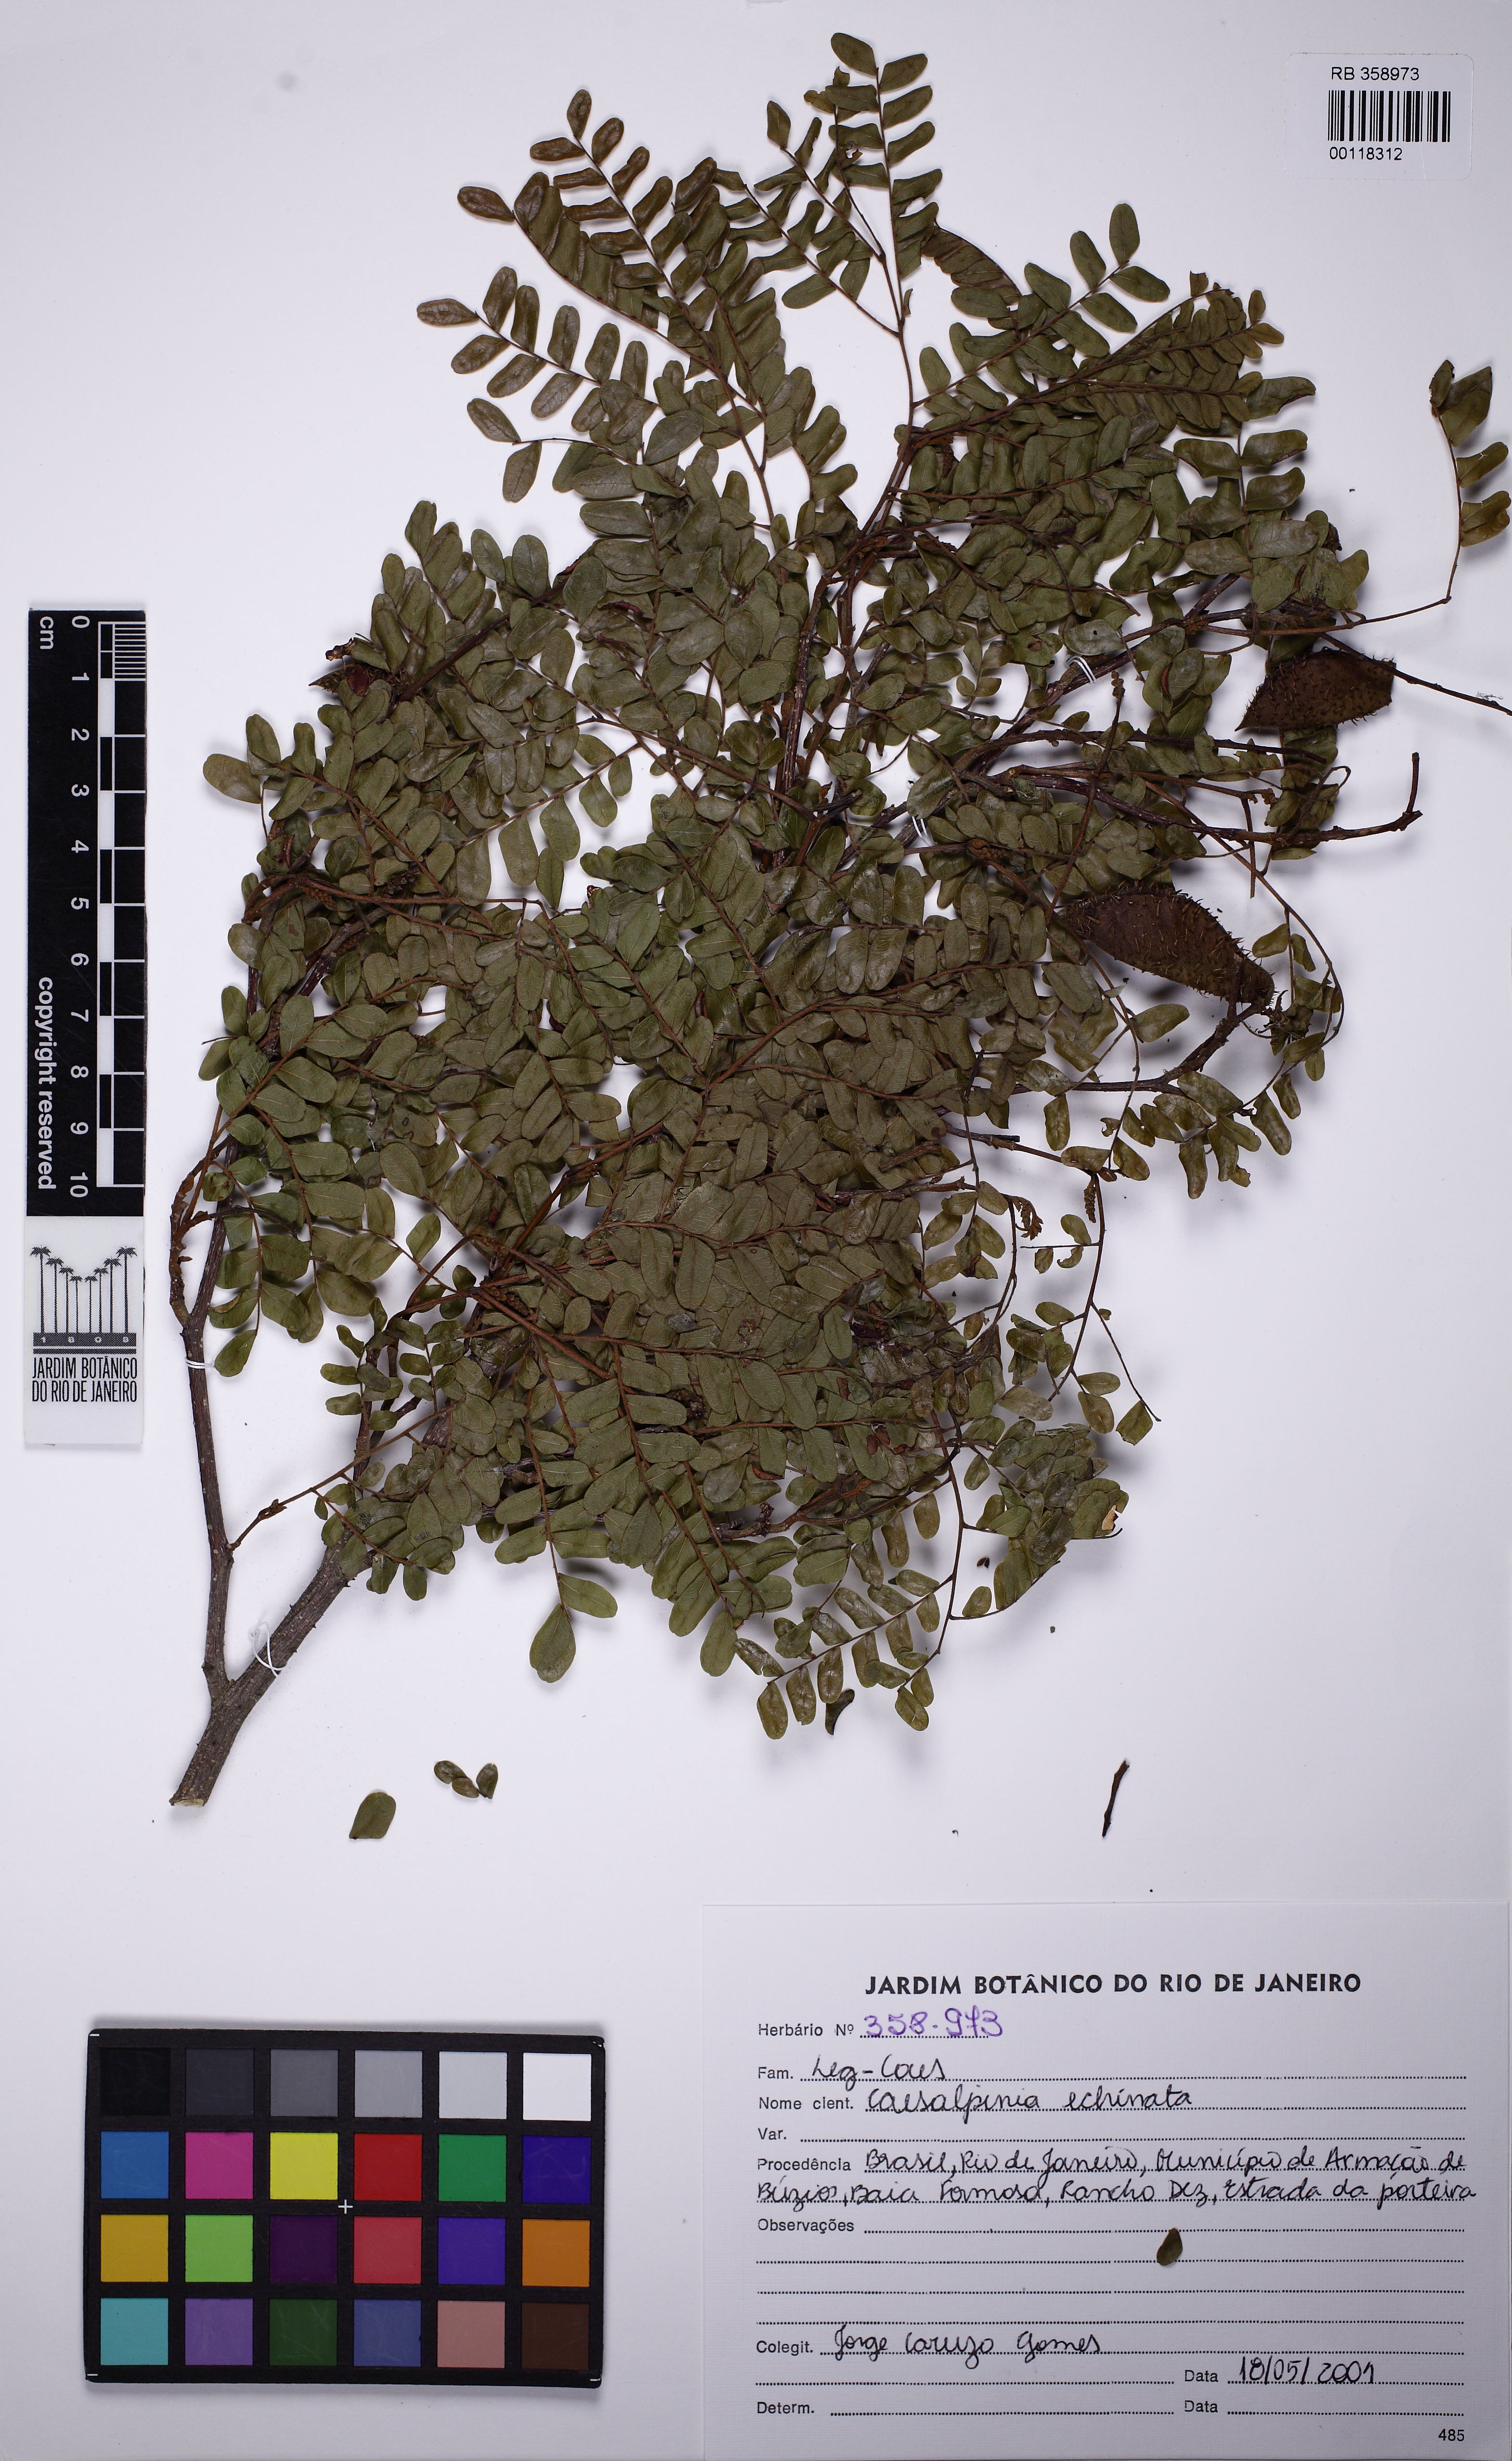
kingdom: Plantae
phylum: Tracheophyta
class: Magnoliopsida
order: Fabales
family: Fabaceae
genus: Paubrasilia
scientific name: Paubrasilia echinata
